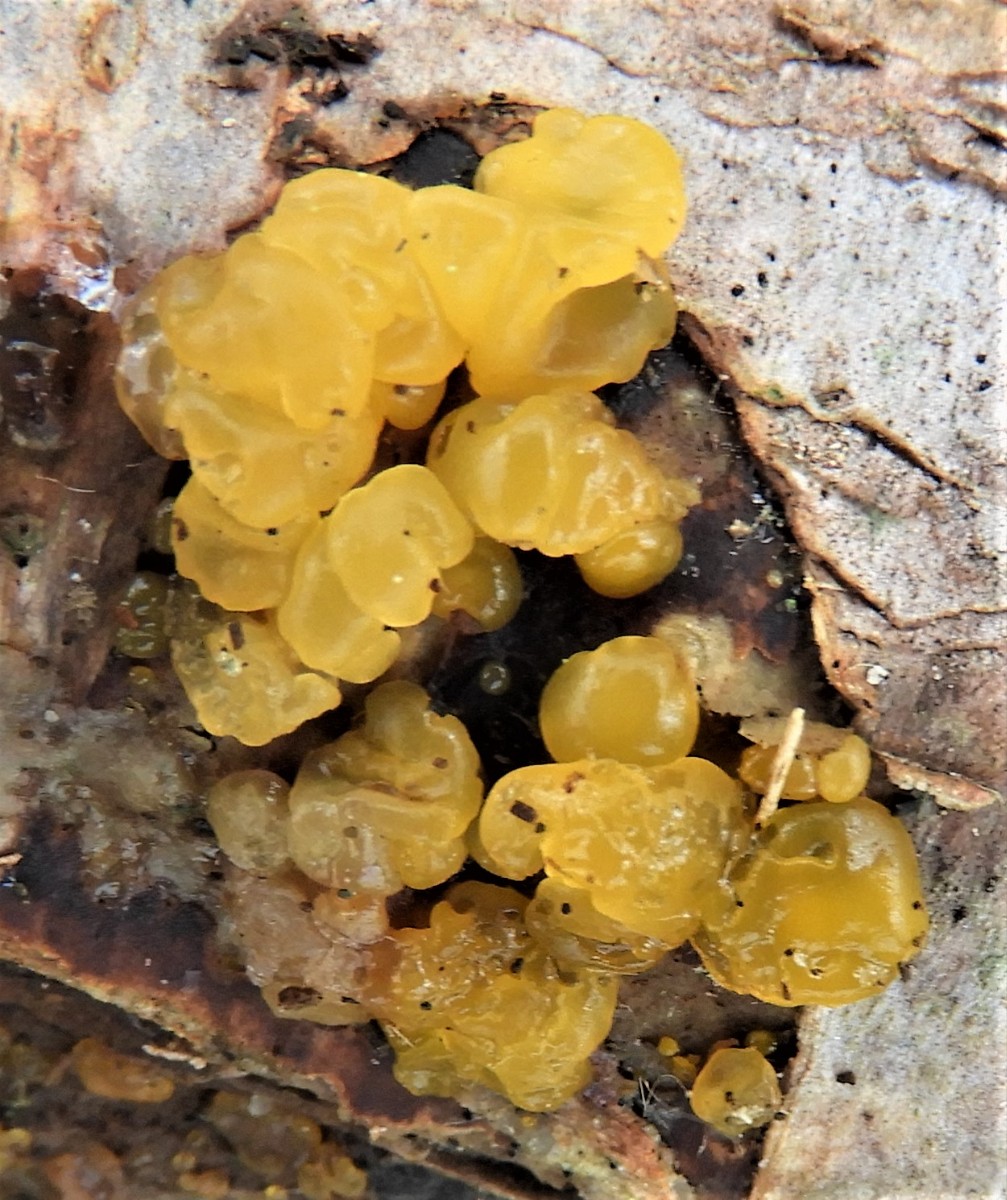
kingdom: Fungi
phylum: Basidiomycota
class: Dacrymycetes
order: Dacrymycetales
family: Dacrymycetaceae
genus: Dacrymyces
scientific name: Dacrymyces stillatus
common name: almindelig tåresvamp
